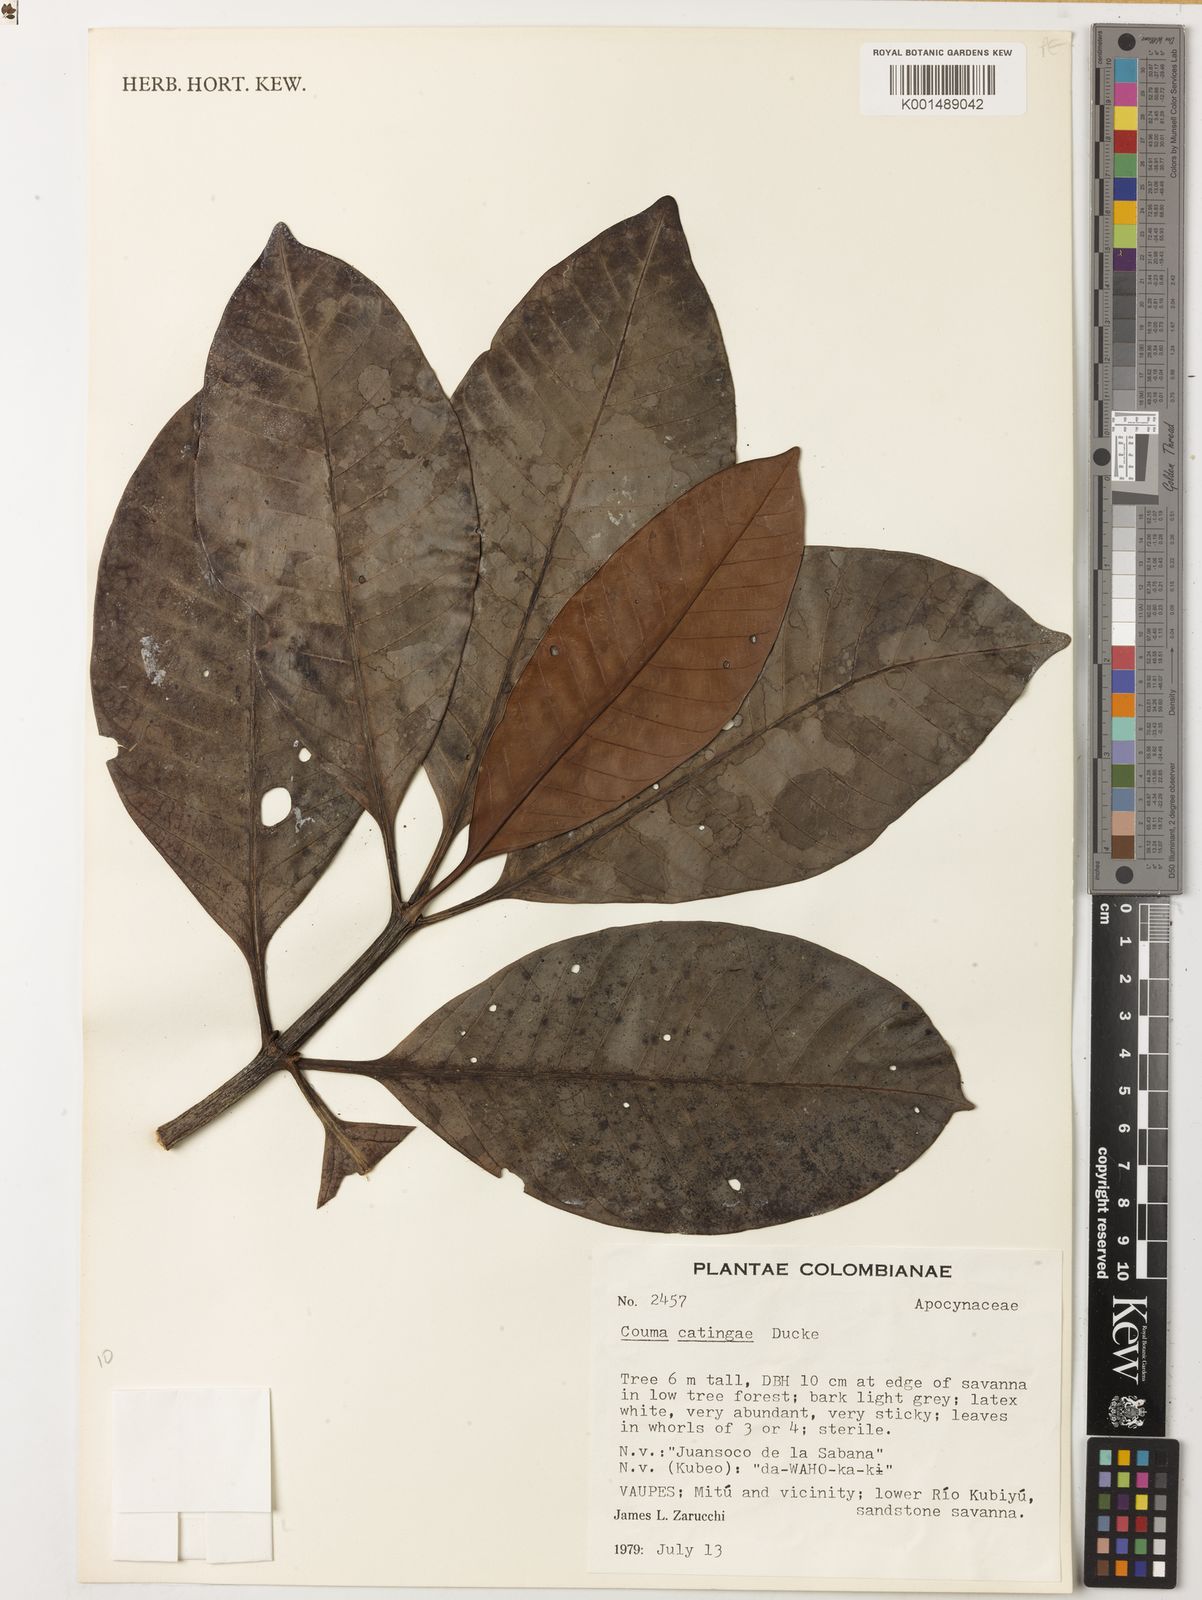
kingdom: Plantae
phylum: Tracheophyta
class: Magnoliopsida
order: Gentianales
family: Apocynaceae
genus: Couma
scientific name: Couma catingae
